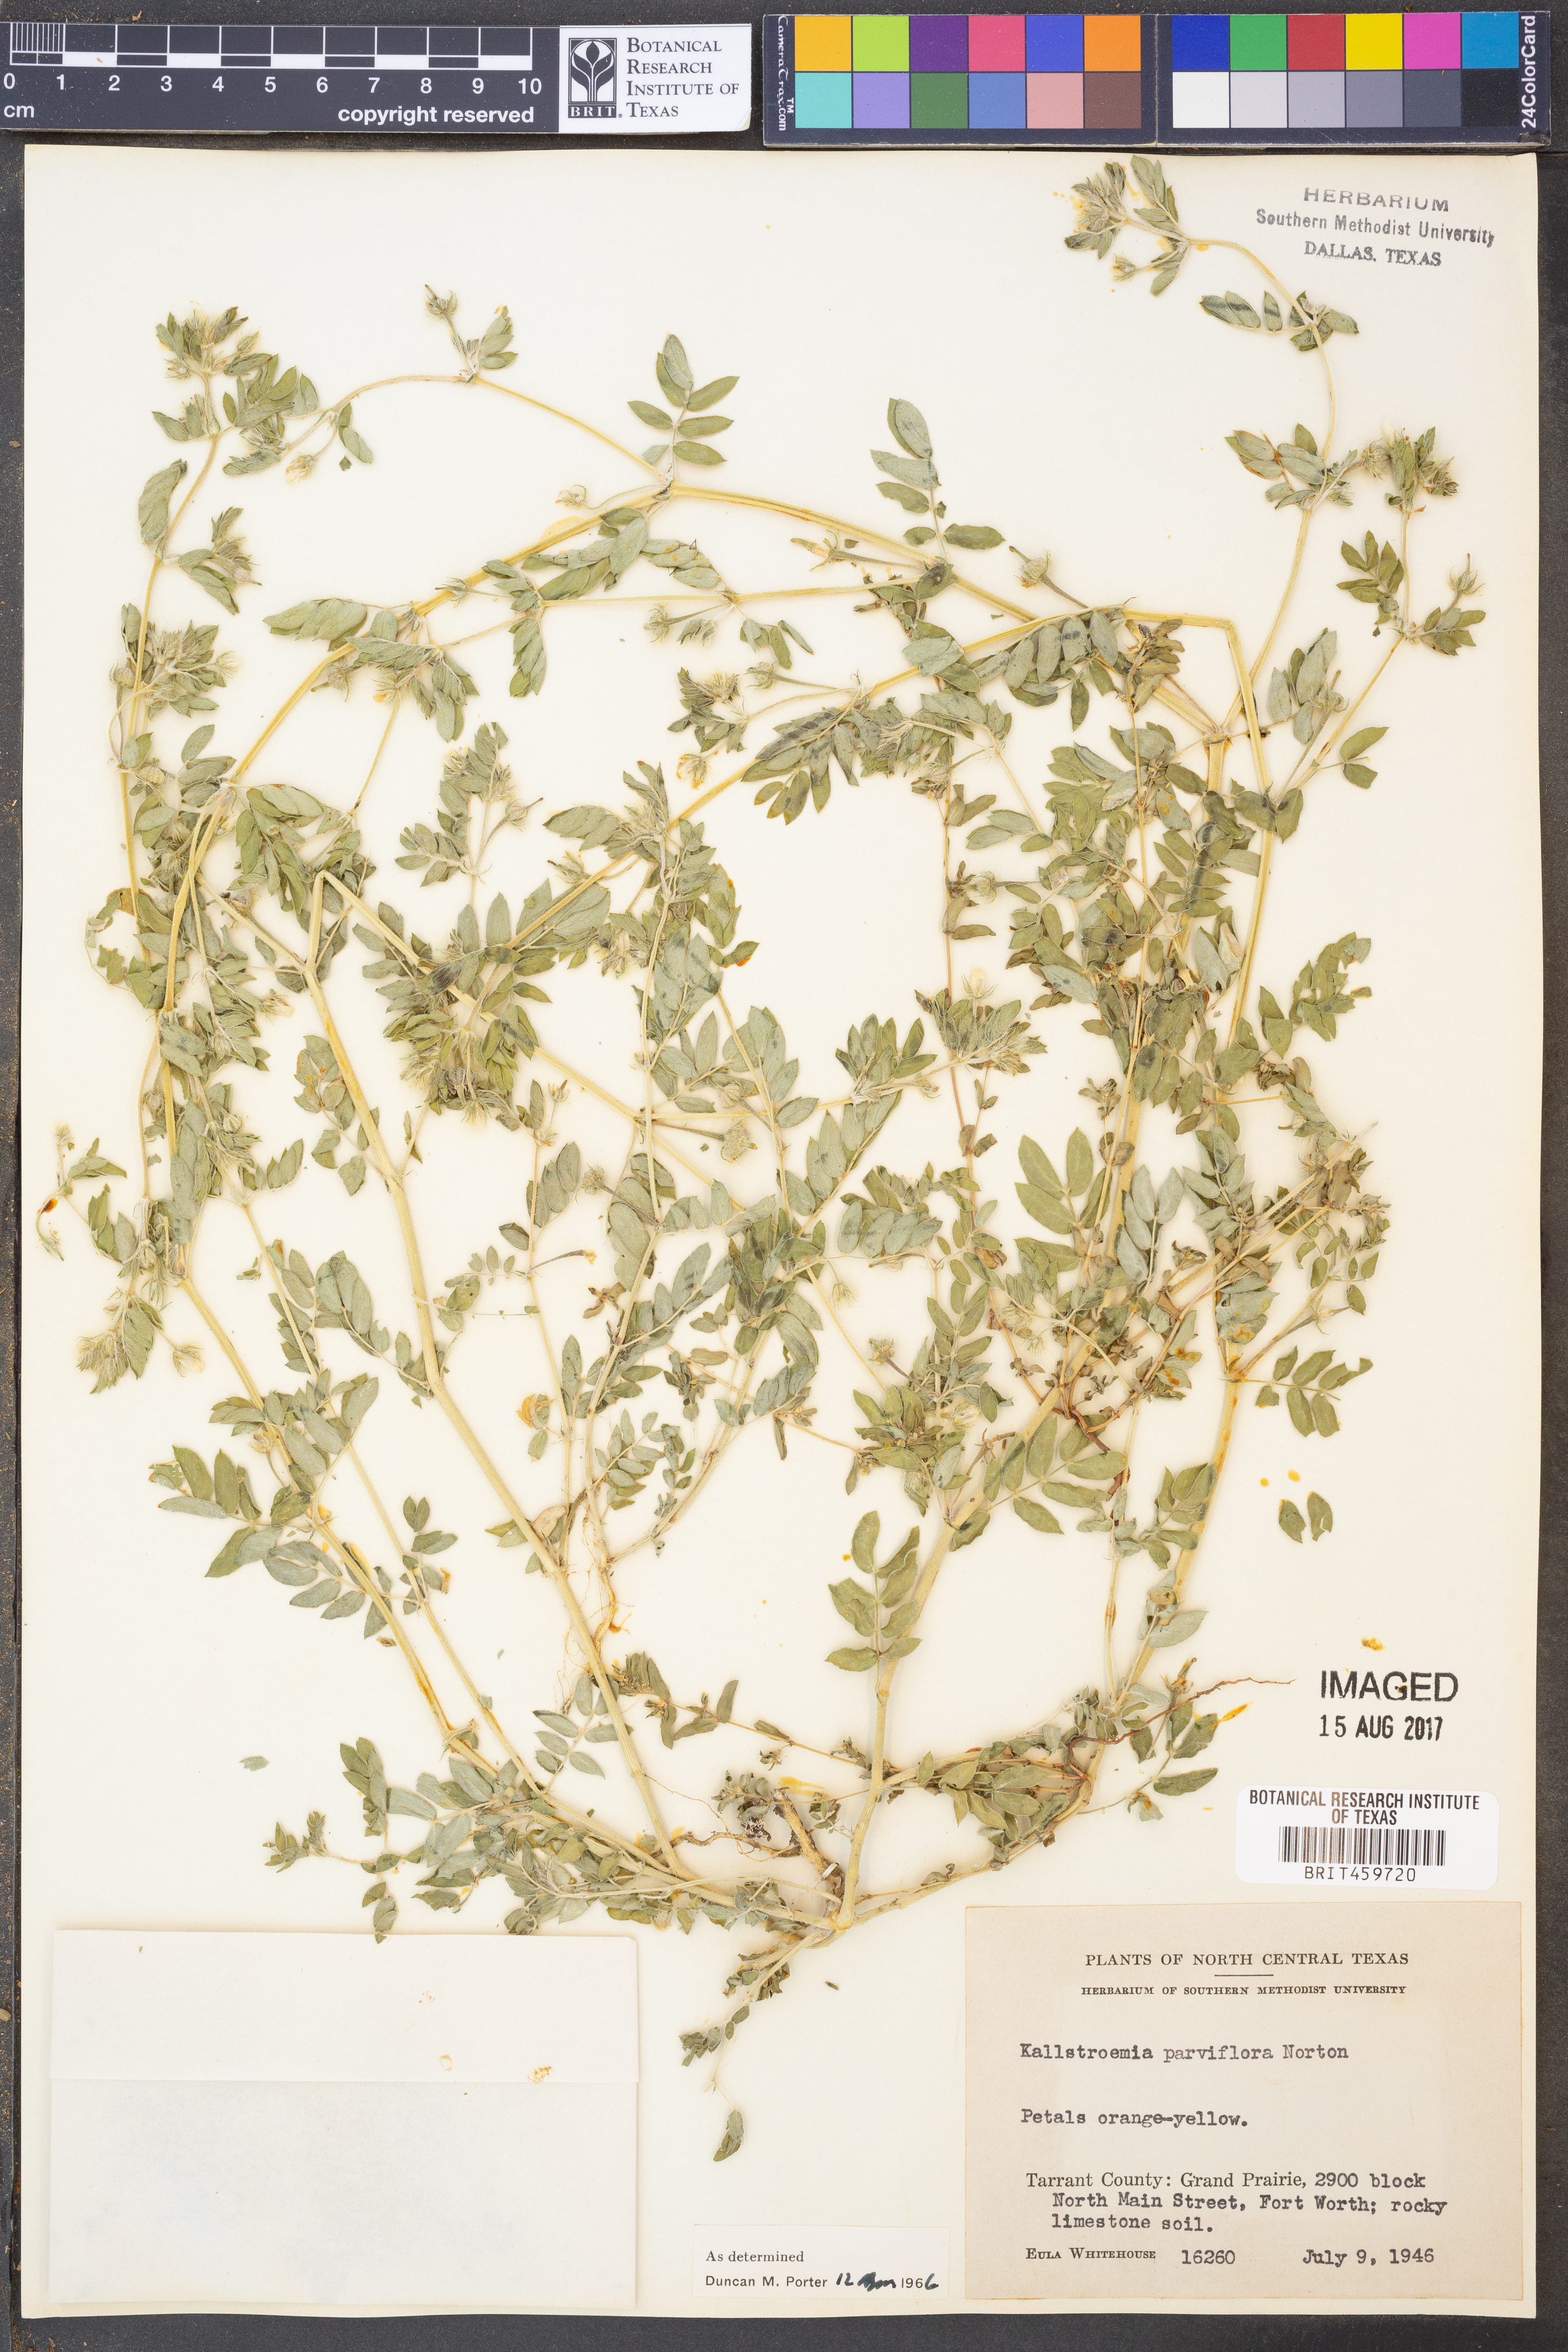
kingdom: Plantae
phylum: Tracheophyta
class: Magnoliopsida
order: Zygophyllales
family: Zygophyllaceae
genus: Kallstroemia
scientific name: Kallstroemia parviflora
